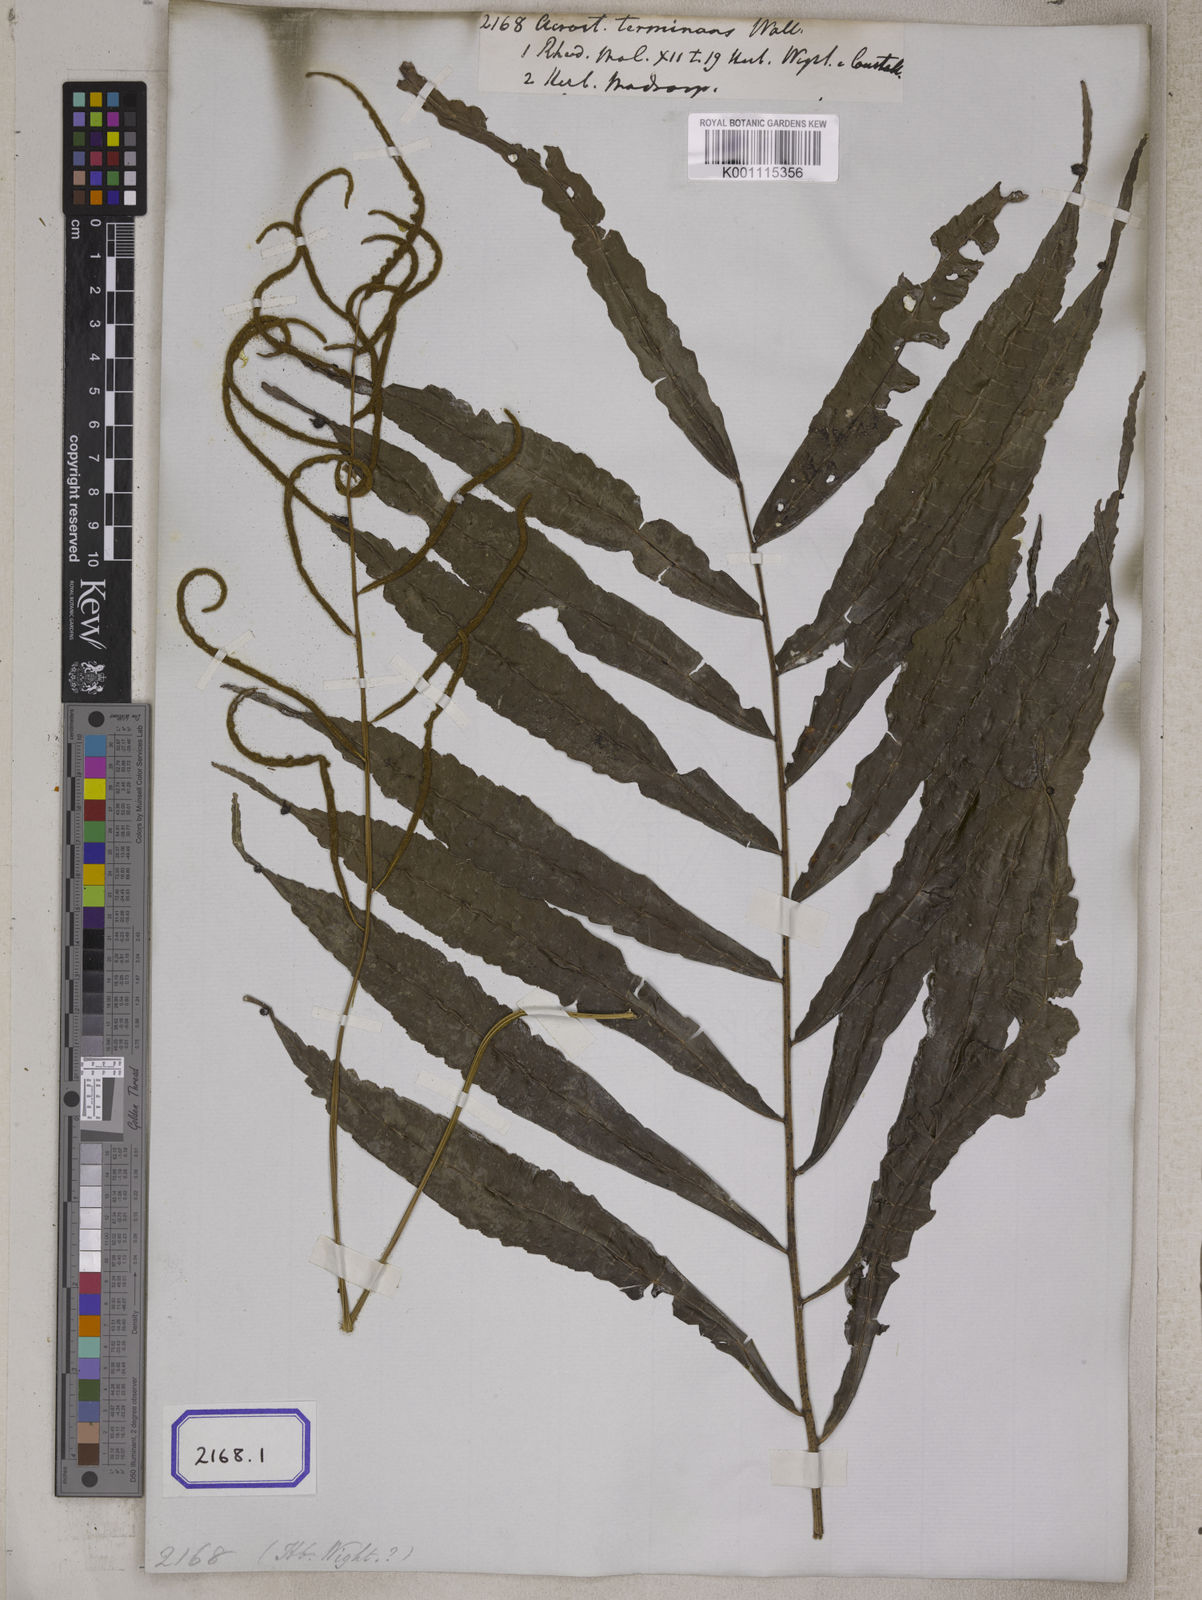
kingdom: Plantae
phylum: Tracheophyta
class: Polypodiopsida
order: Polypodiales
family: Dryopteridaceae
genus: Bolbitis
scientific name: Bolbitis terminans
